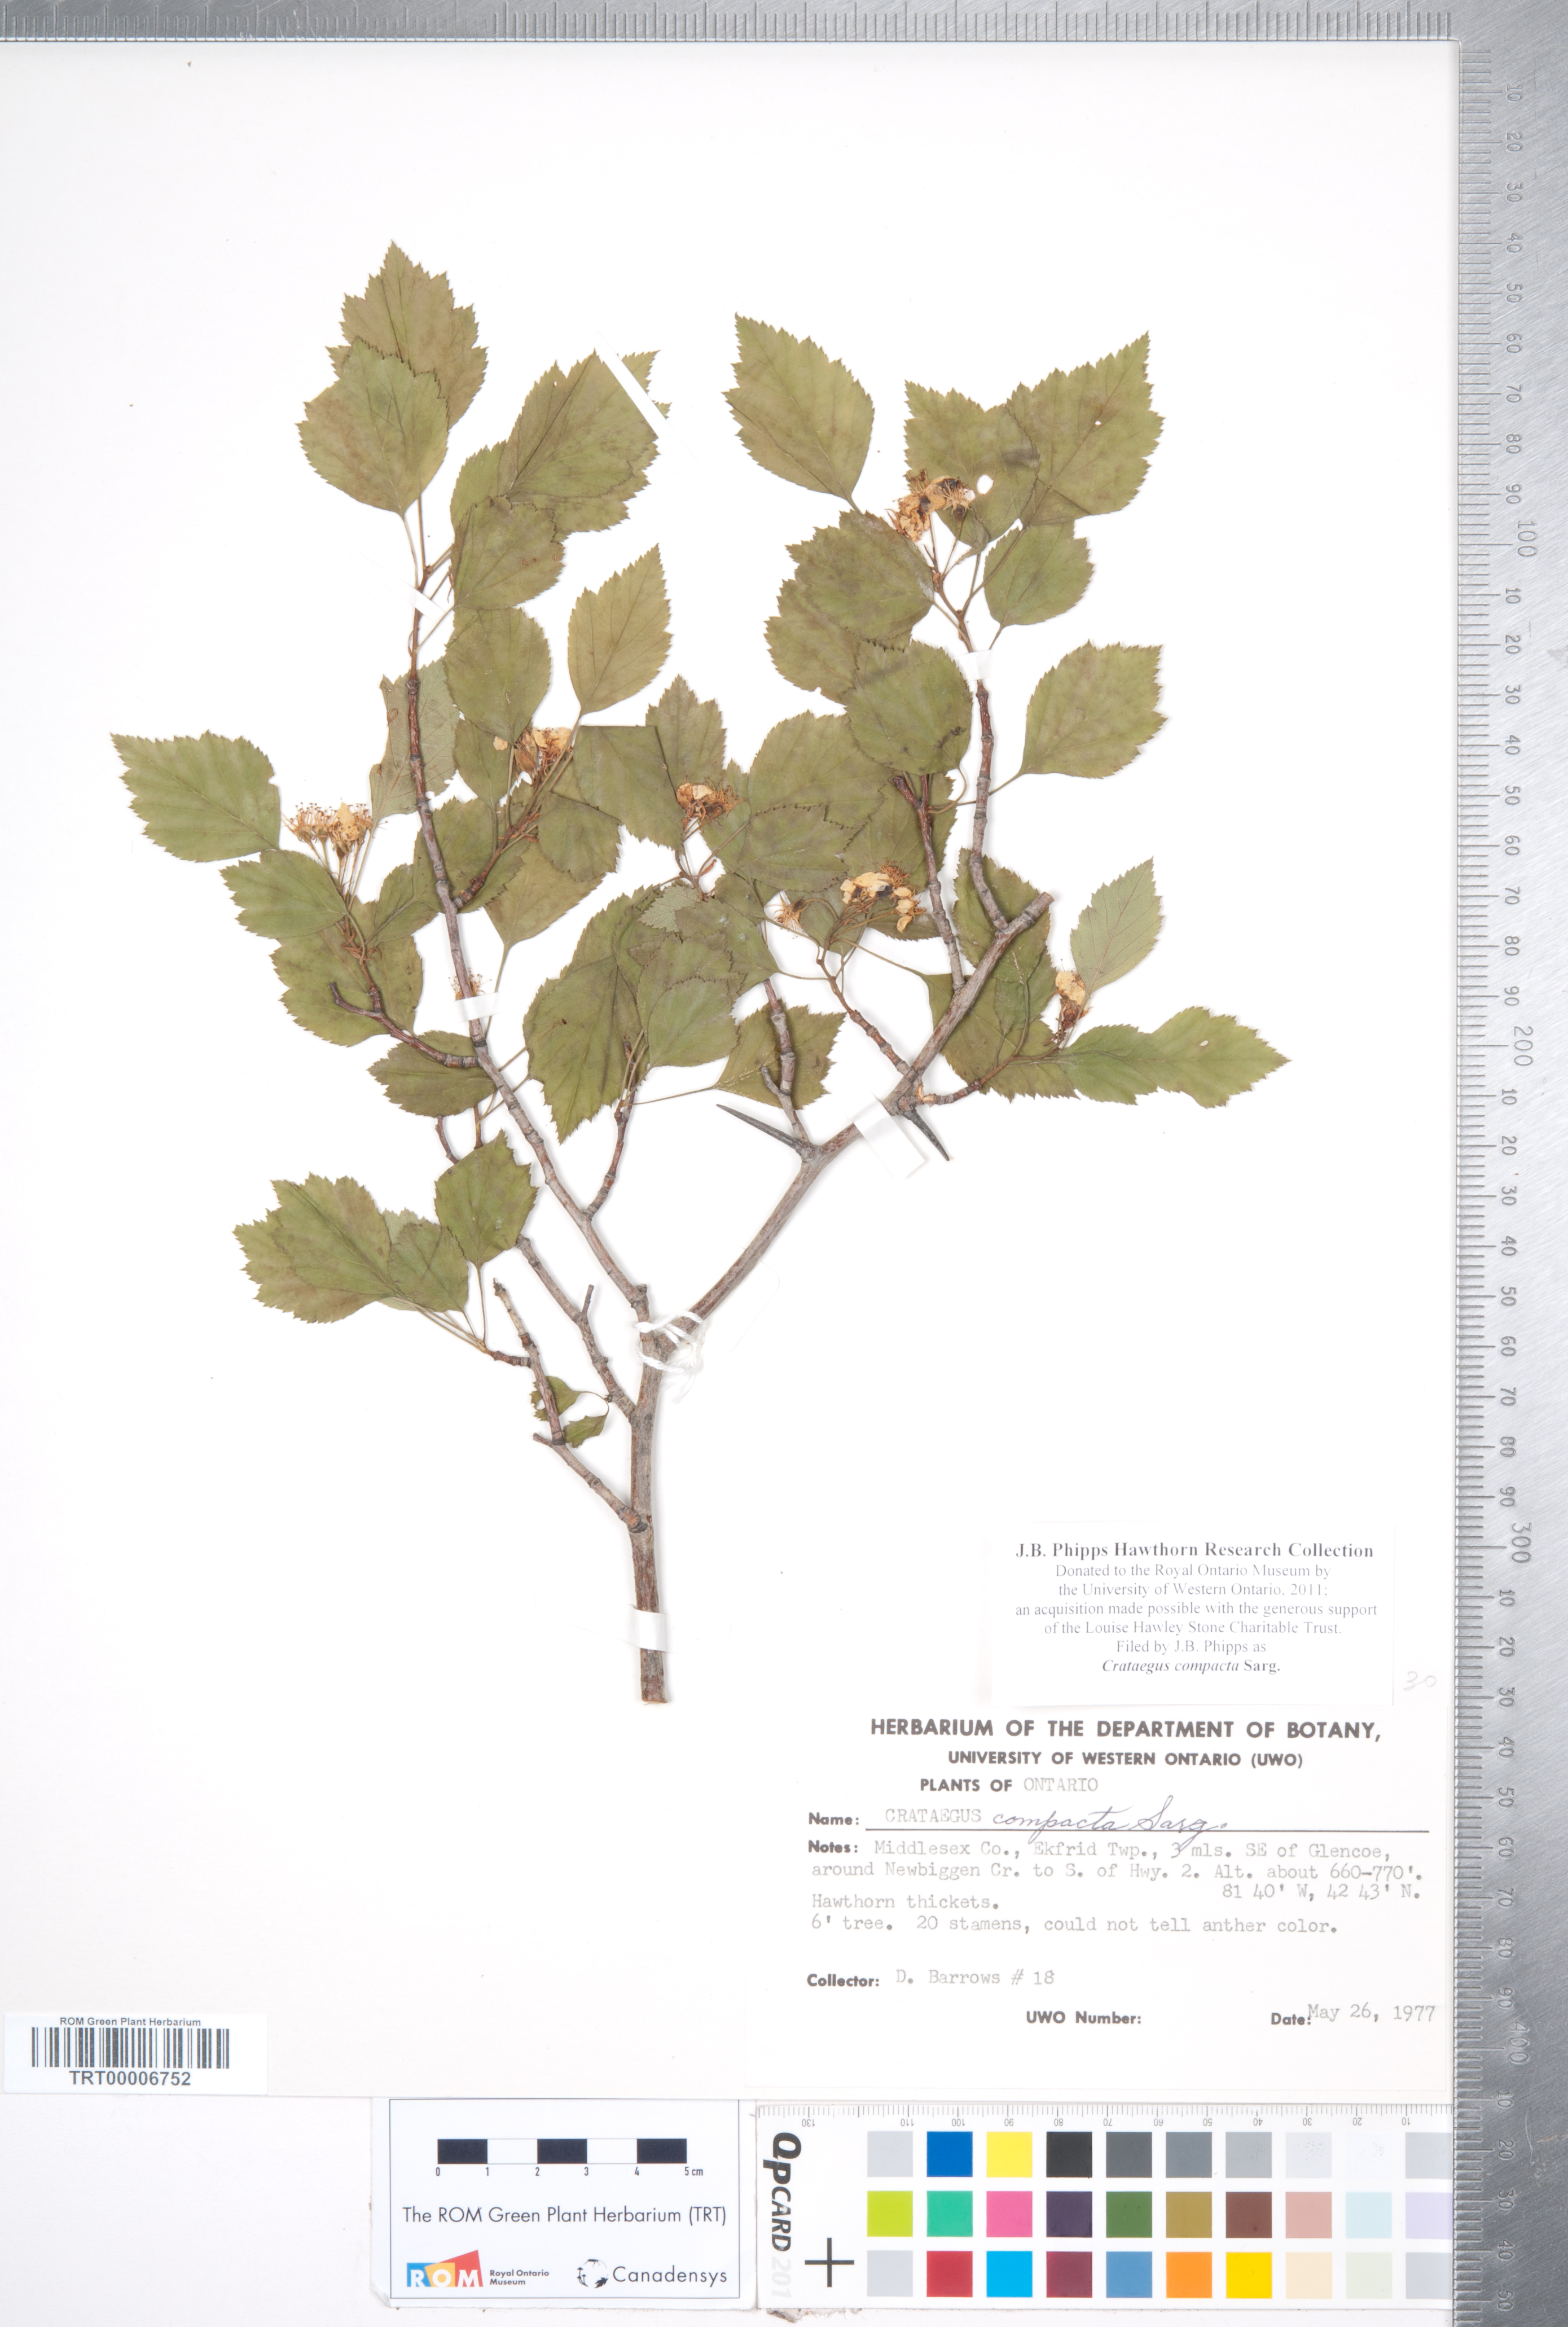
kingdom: Plantae
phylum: Tracheophyta
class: Magnoliopsida
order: Rosales
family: Rosaceae
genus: Crataegus
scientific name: Crataegus compacta
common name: Clustered hawthorn
